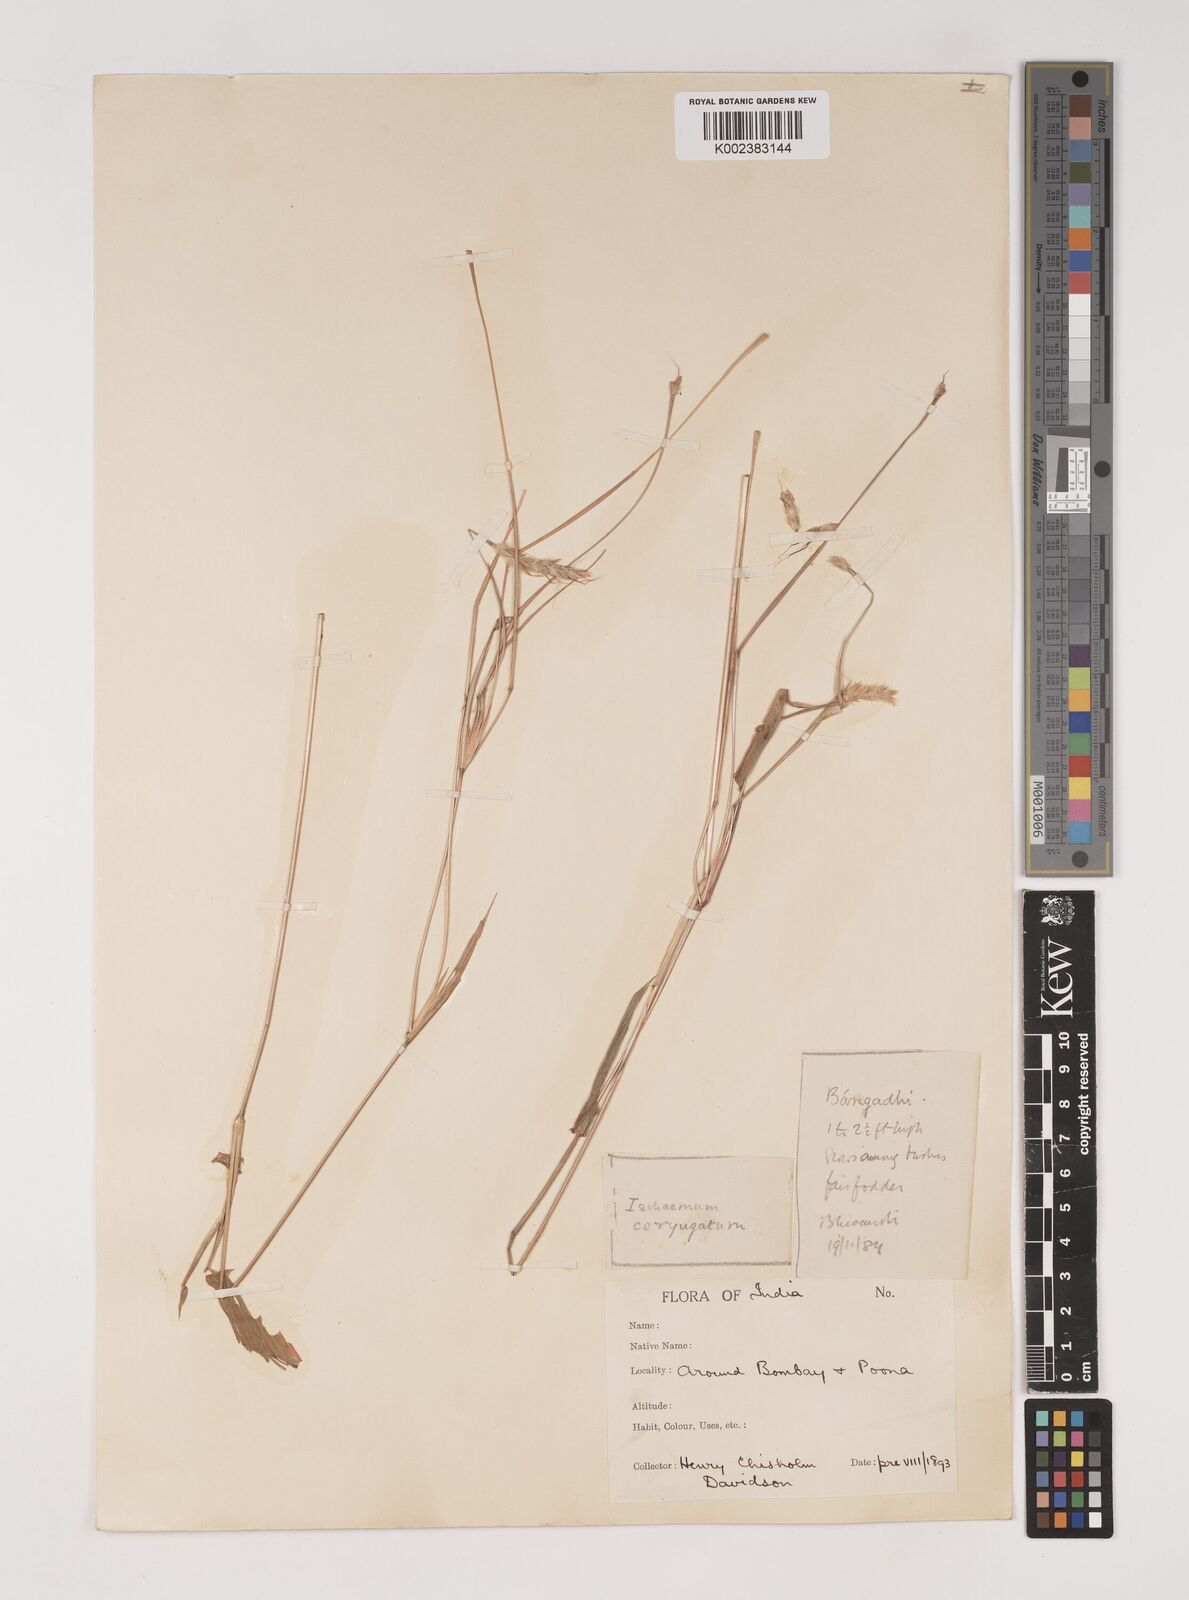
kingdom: Plantae
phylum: Tracheophyta
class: Liliopsida
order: Poales
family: Poaceae
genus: Ischaemum
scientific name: Ischaemum semisagittatum
